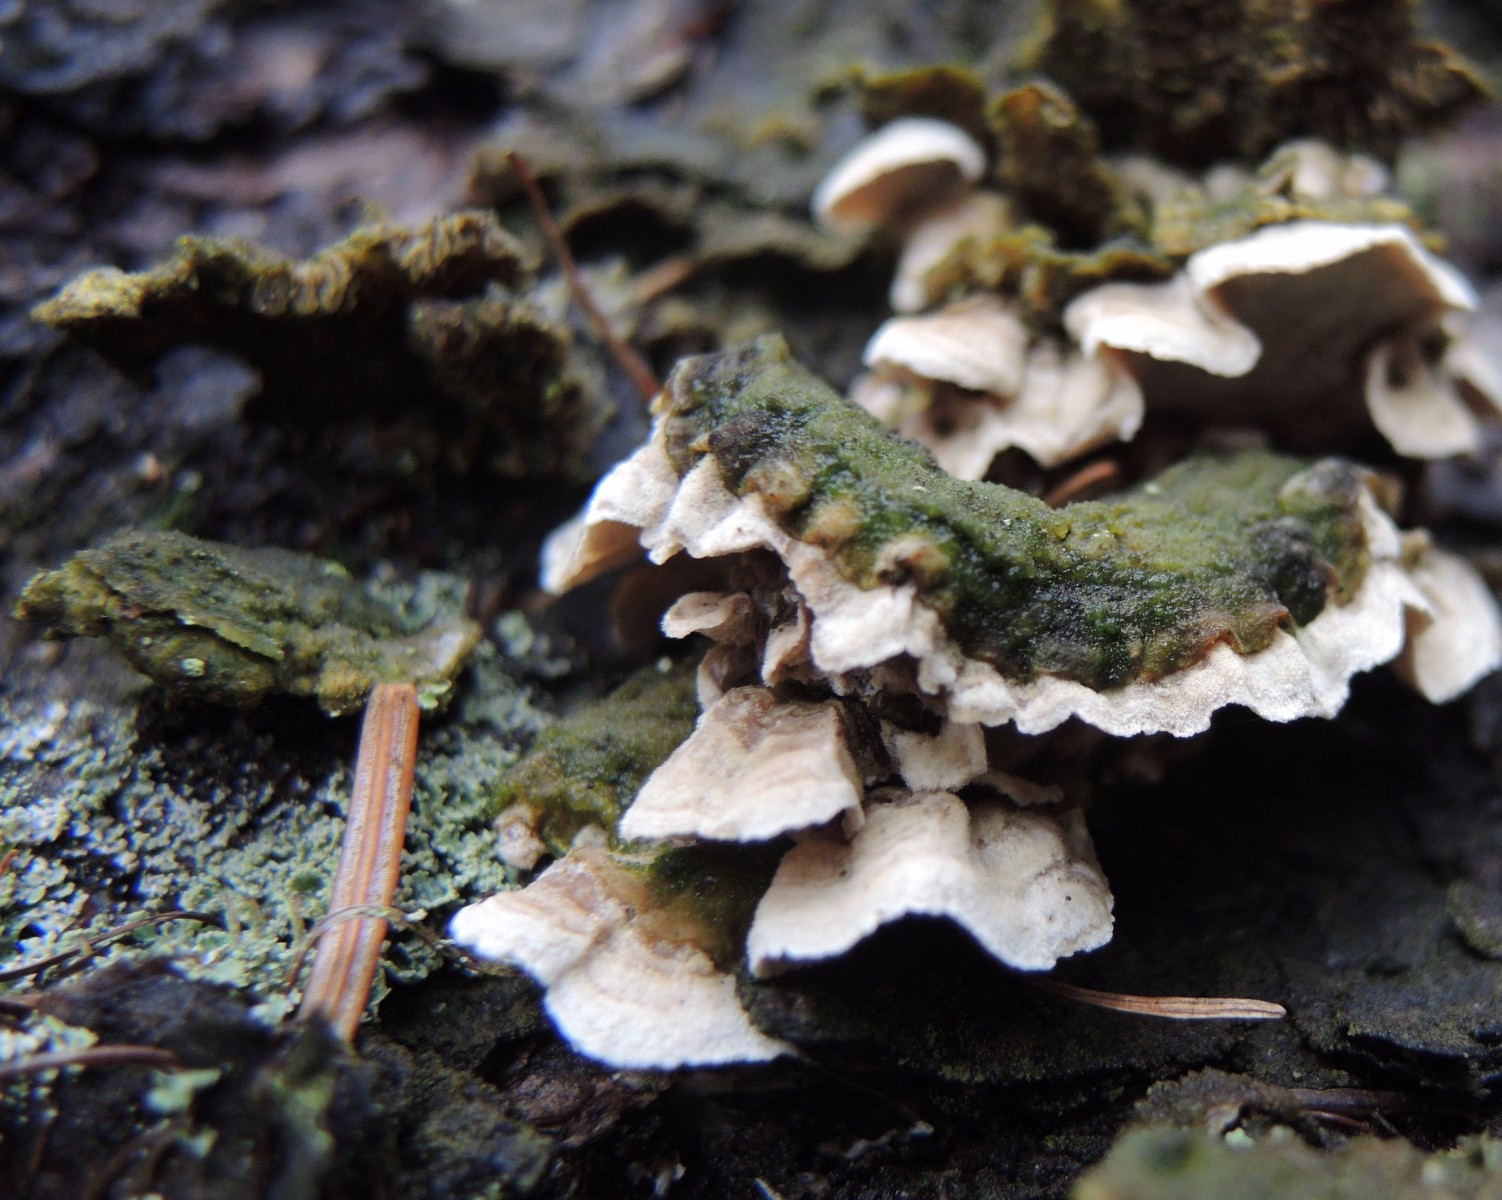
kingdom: Fungi
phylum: Basidiomycota
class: Agaricomycetes
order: Polyporales
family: Incrustoporiaceae
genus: Skeletocutis
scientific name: Skeletocutis carneogrisea
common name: rødgrå krystalporesvamp
